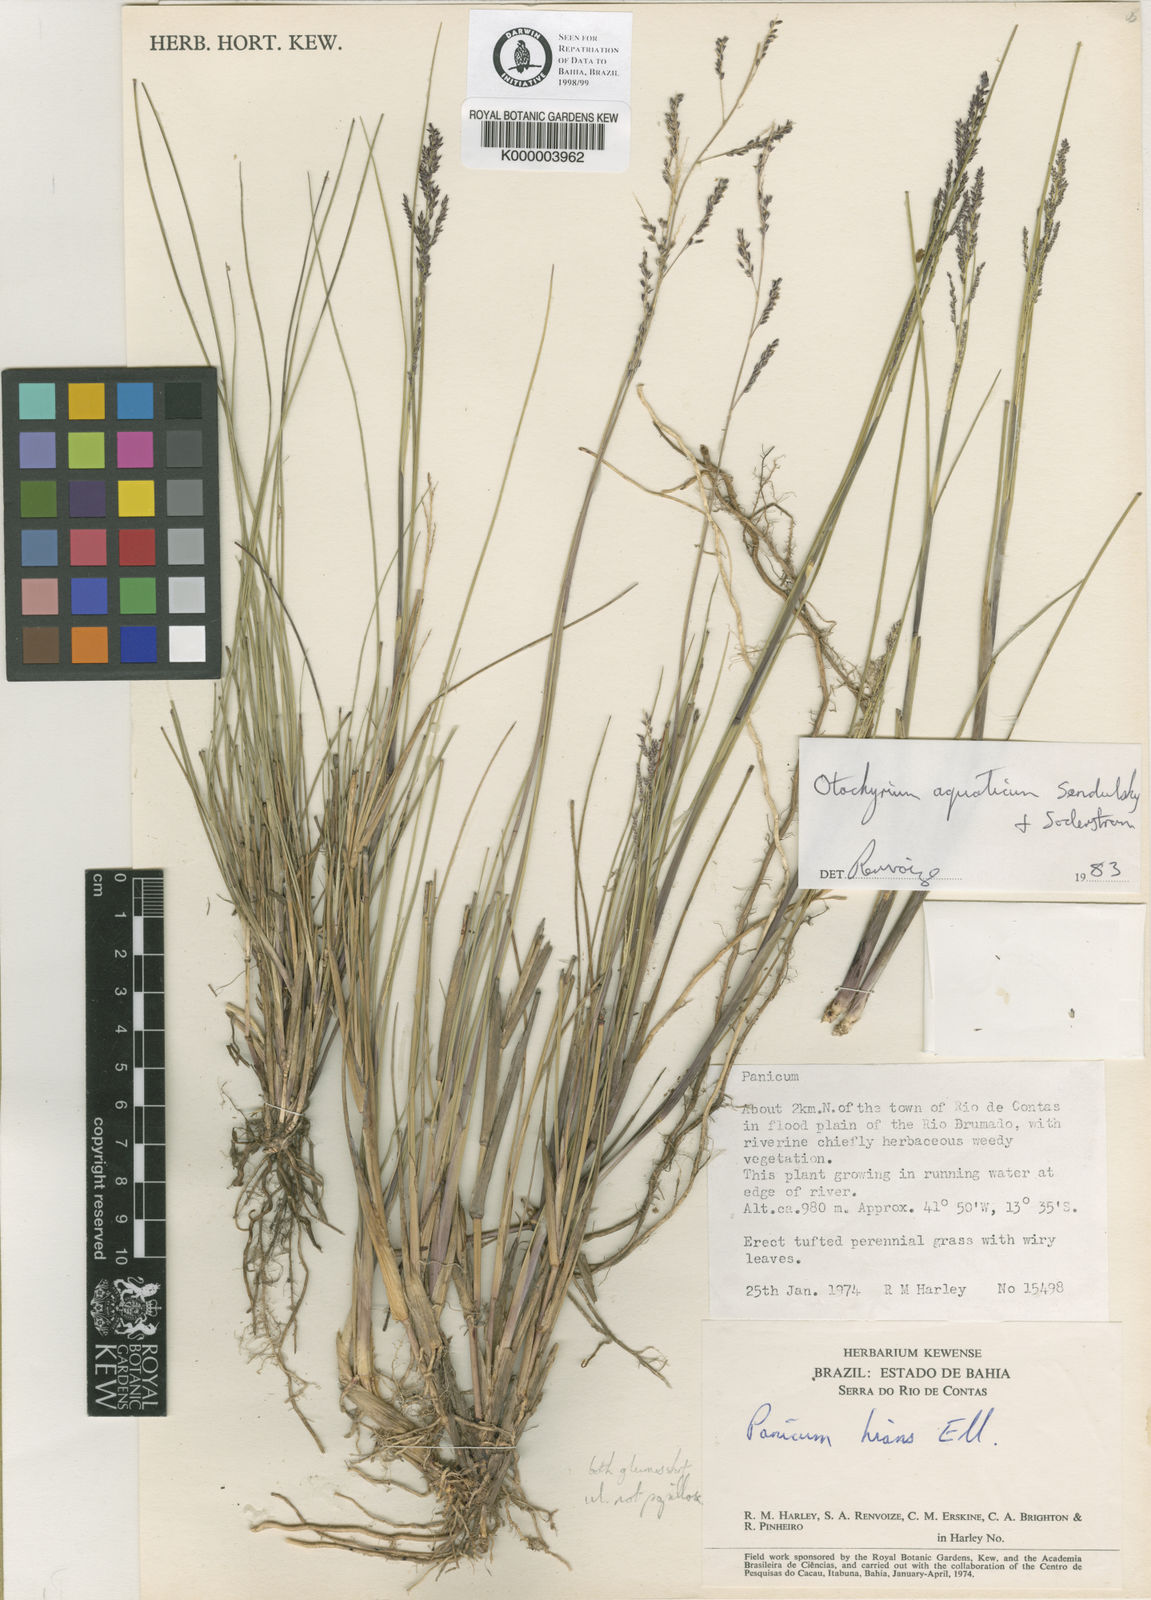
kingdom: Plantae
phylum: Tracheophyta
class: Liliopsida
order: Poales
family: Poaceae
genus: Otachyrium
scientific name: Otachyrium aquaticum
